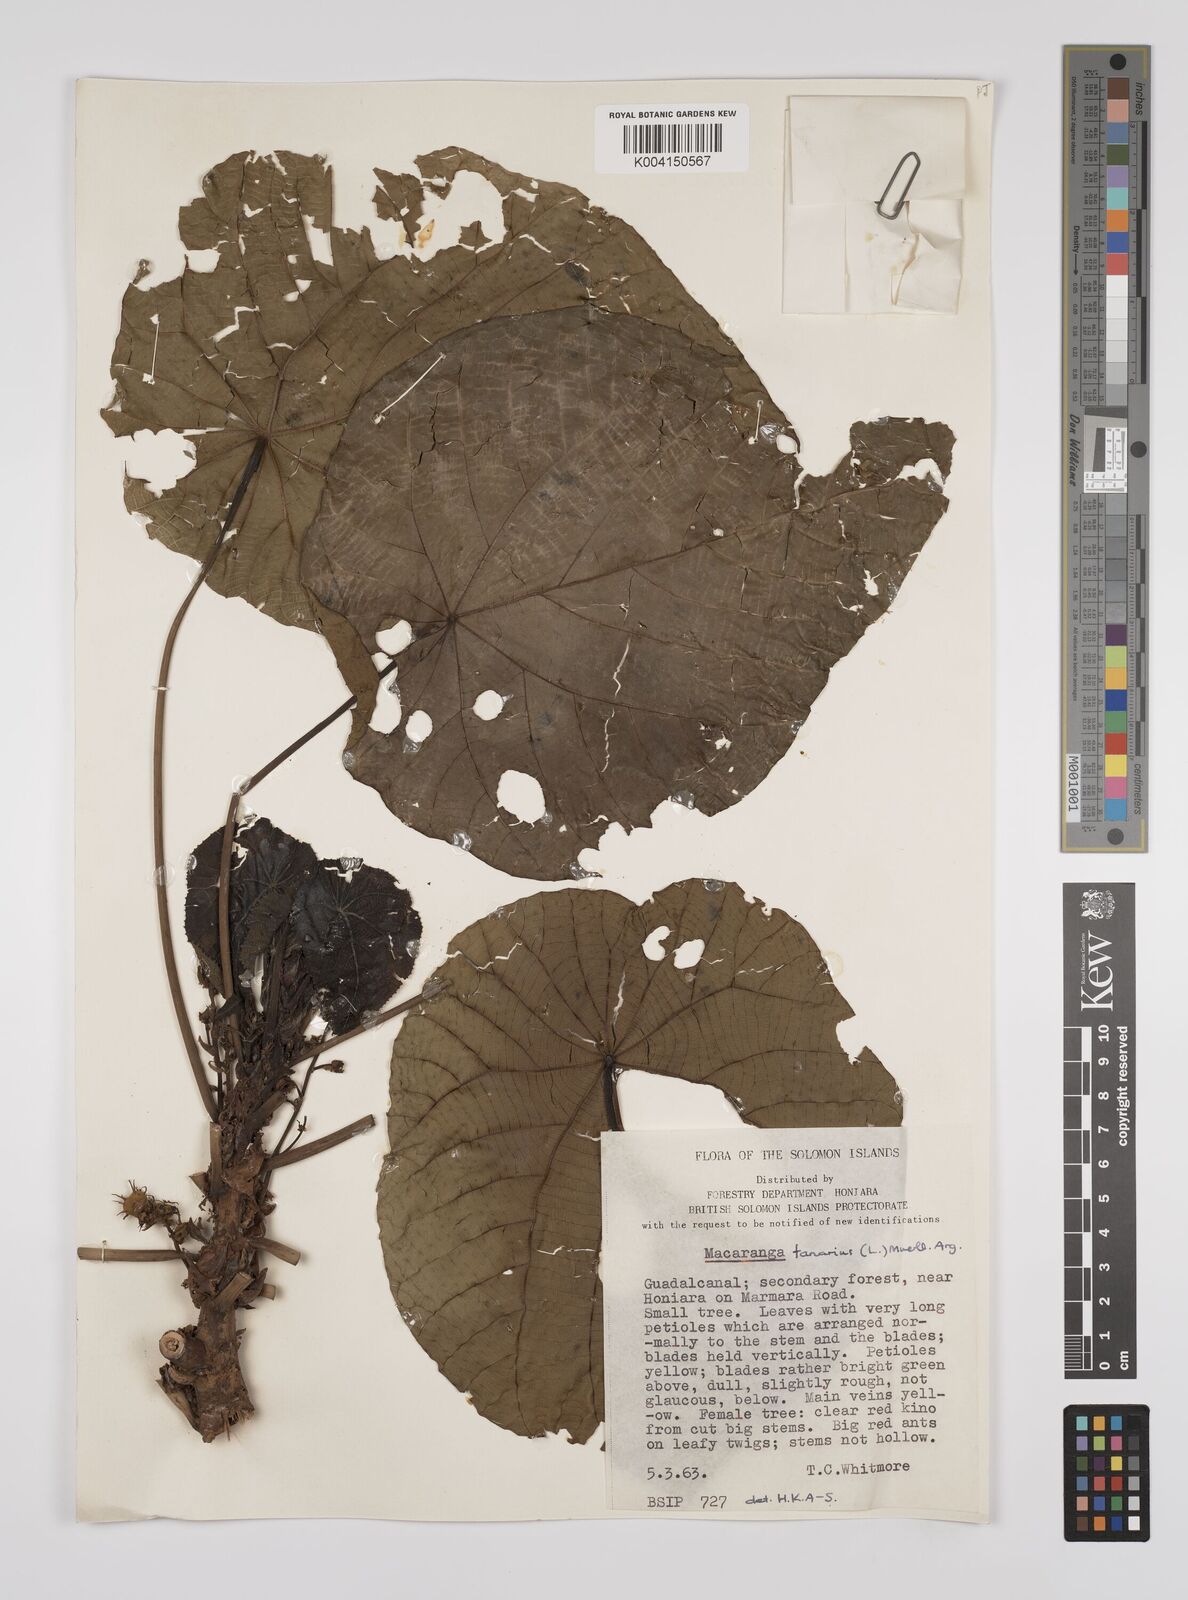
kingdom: Plantae
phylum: Tracheophyta
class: Magnoliopsida
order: Malpighiales
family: Euphorbiaceae
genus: Macaranga
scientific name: Macaranga tanarius
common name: Parasol leaf tree
